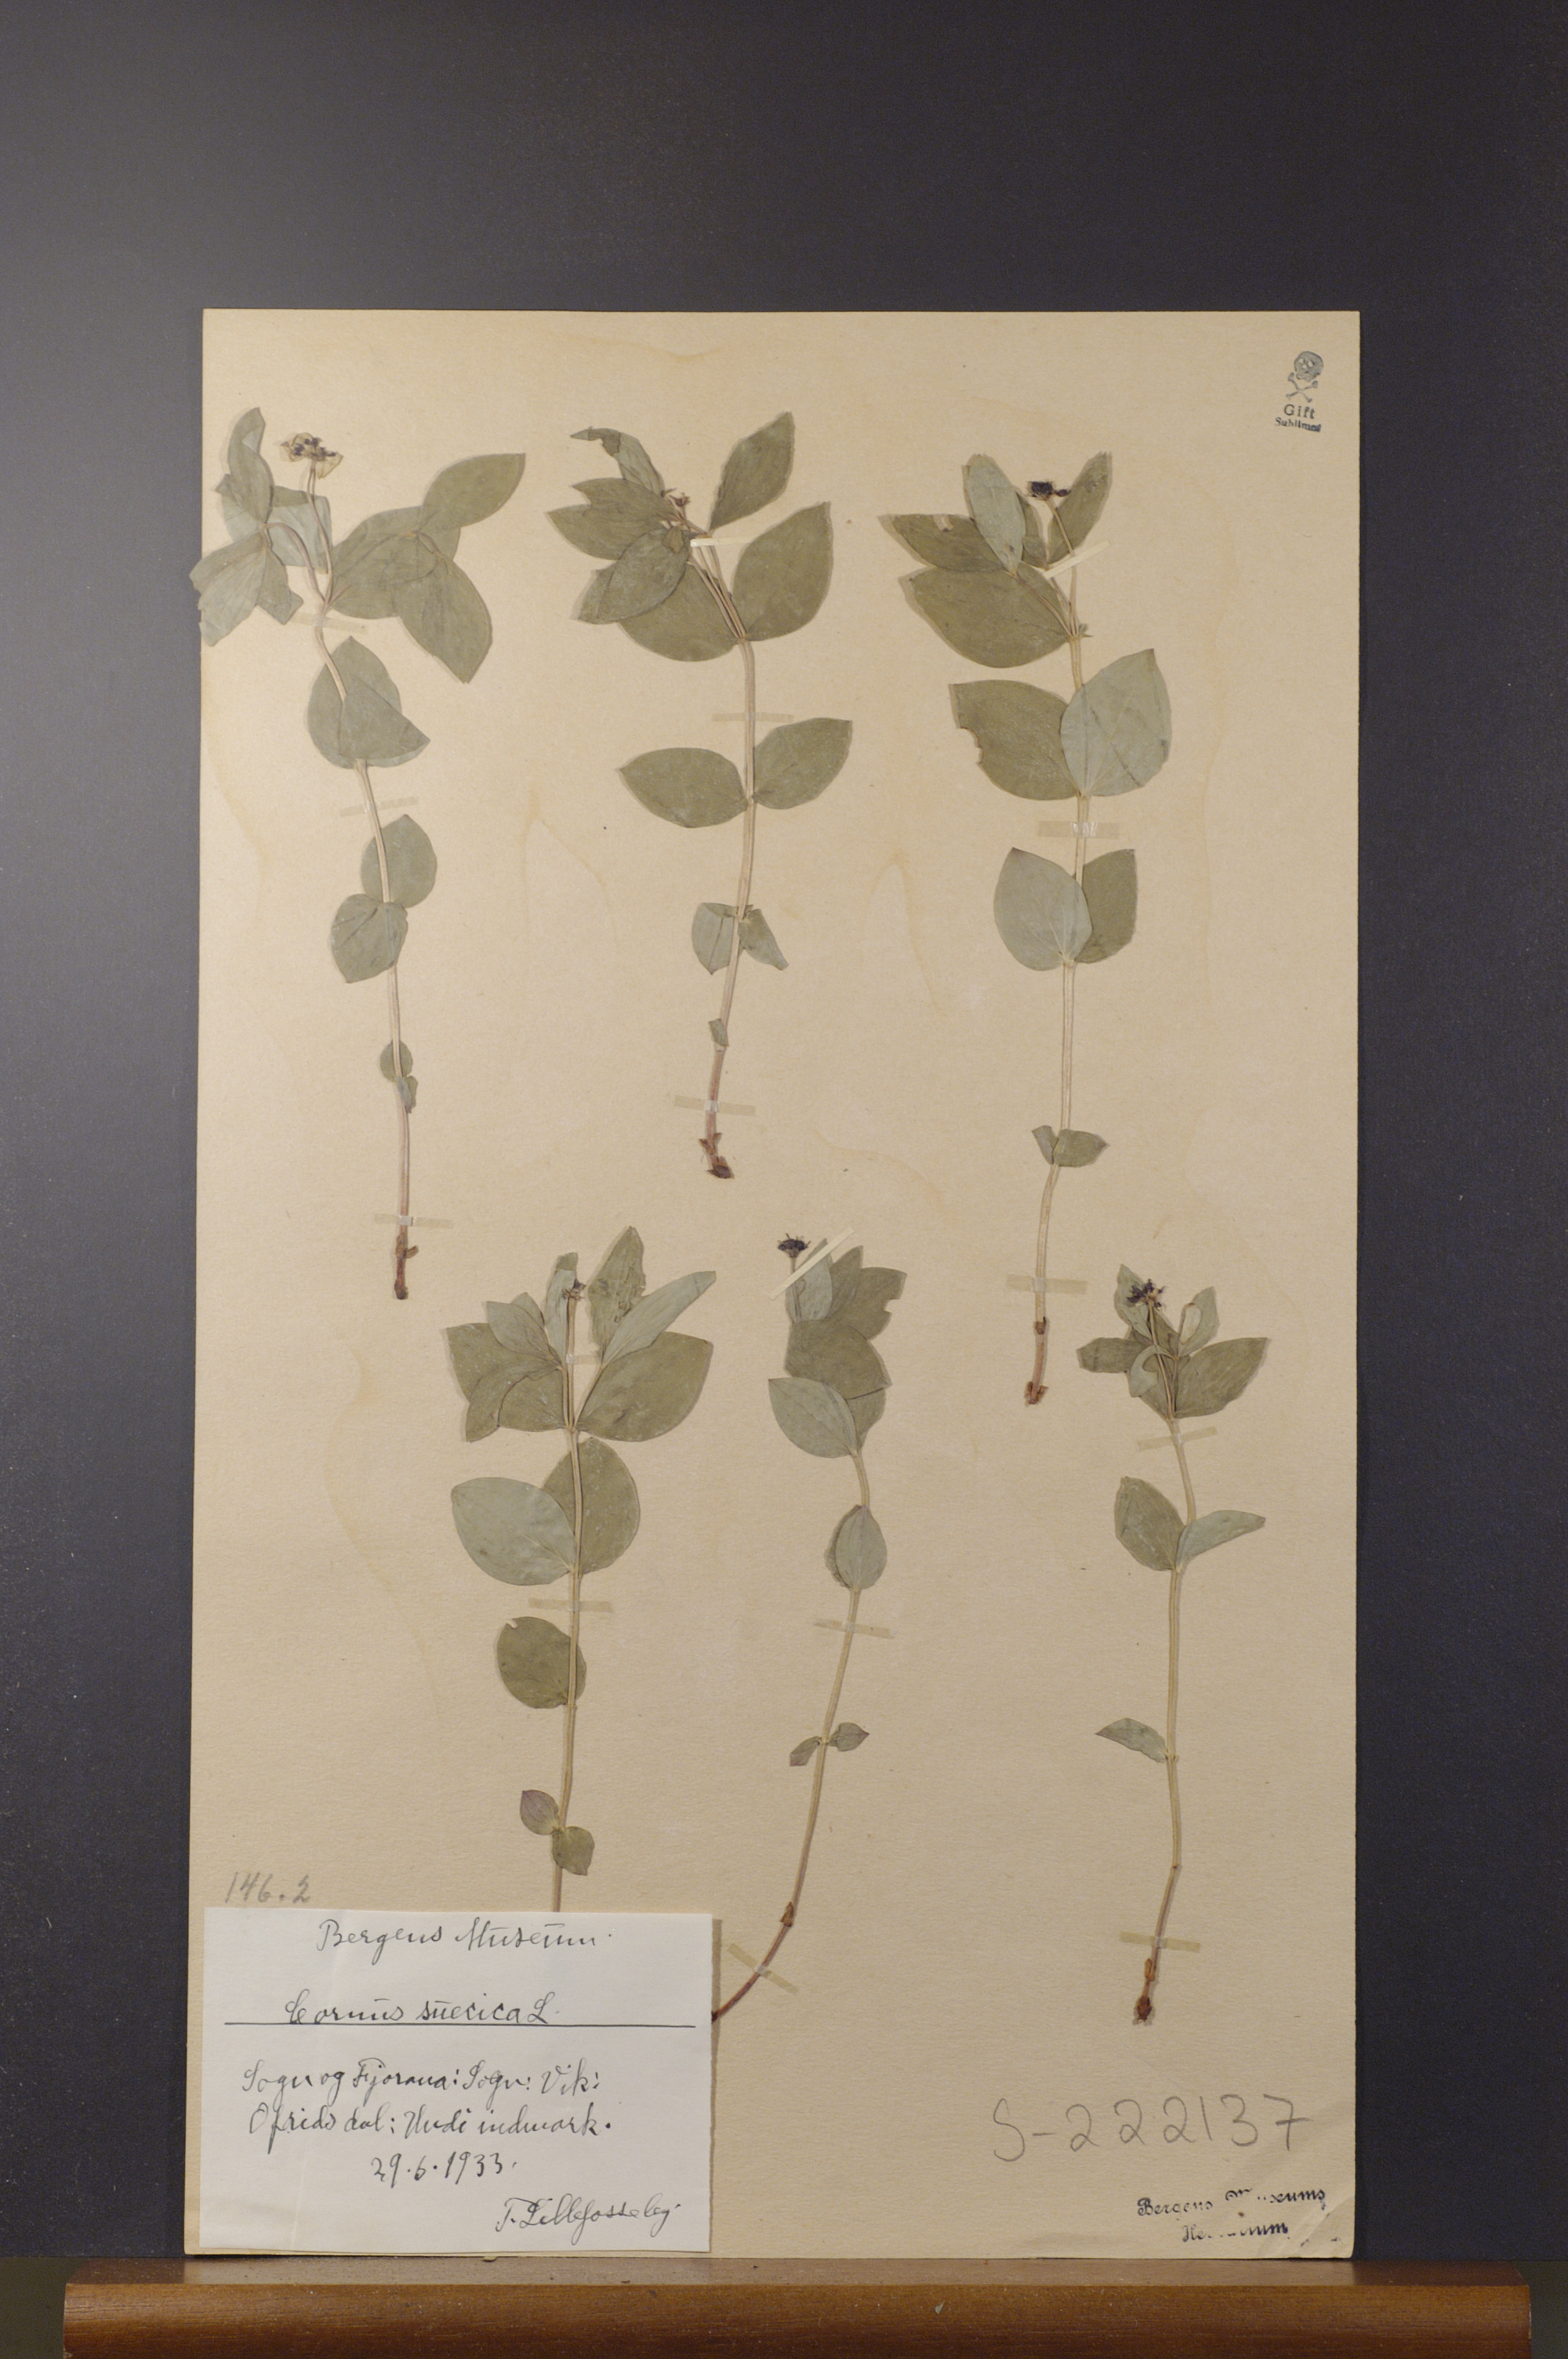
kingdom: Plantae
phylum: Tracheophyta
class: Magnoliopsida
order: Cornales
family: Cornaceae
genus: Cornus
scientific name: Cornus suecica
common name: Dwarf cornel
